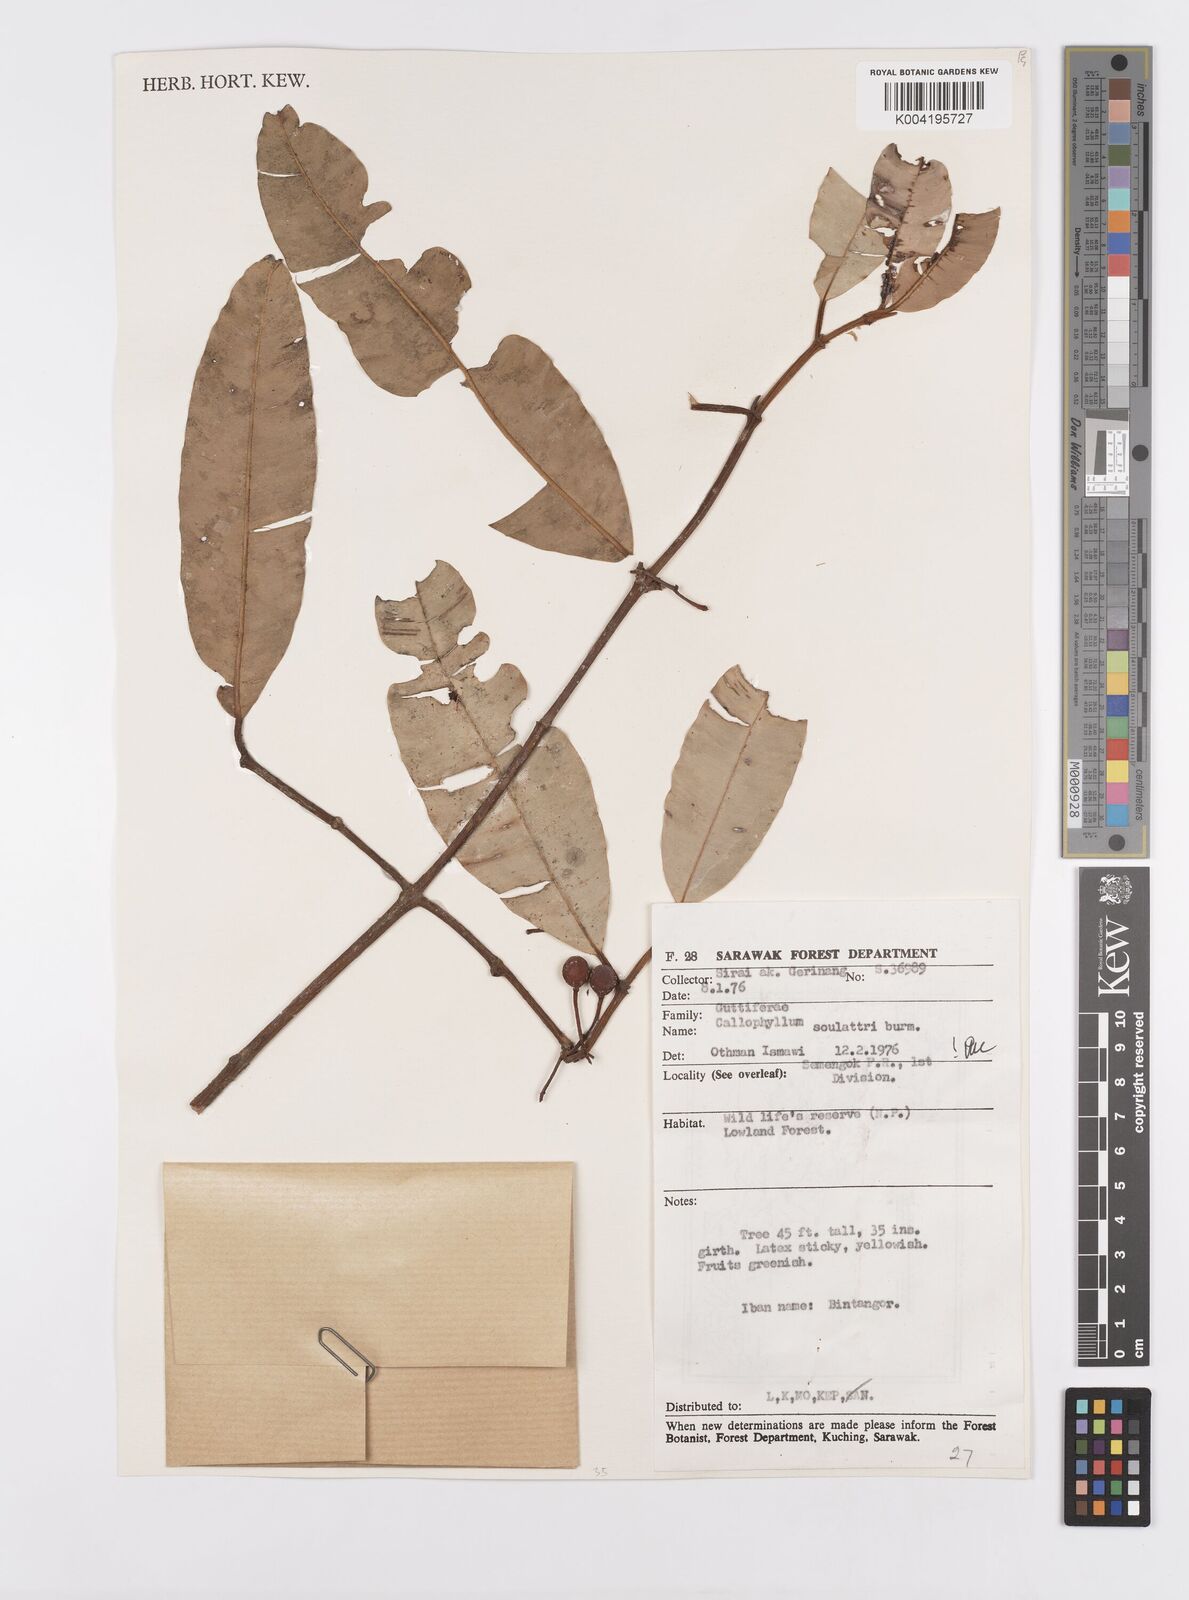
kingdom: Plantae
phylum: Tracheophyta
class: Magnoliopsida
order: Malpighiales
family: Calophyllaceae
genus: Calophyllum
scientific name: Calophyllum soulattri
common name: Bitangoor boonot
